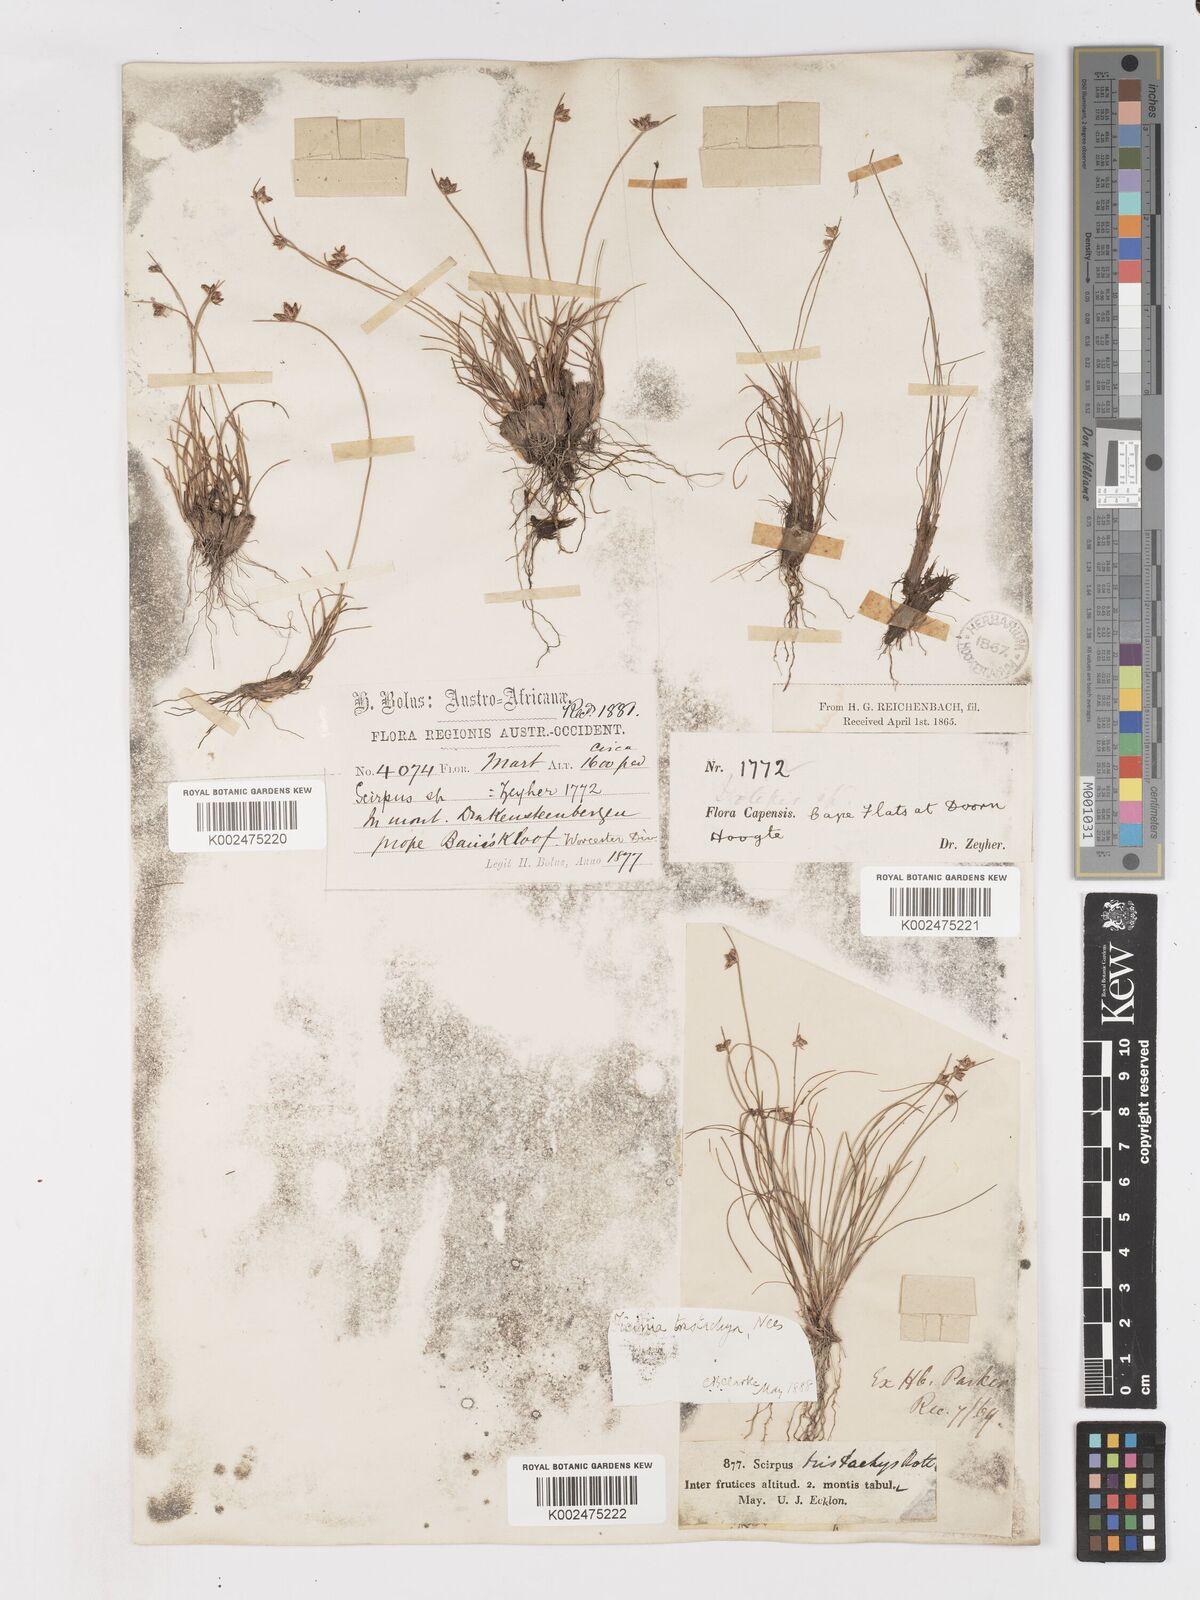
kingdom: Plantae
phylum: Tracheophyta
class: Liliopsida
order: Poales
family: Cyperaceae
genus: Ficinia
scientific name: Ficinia tristachya
